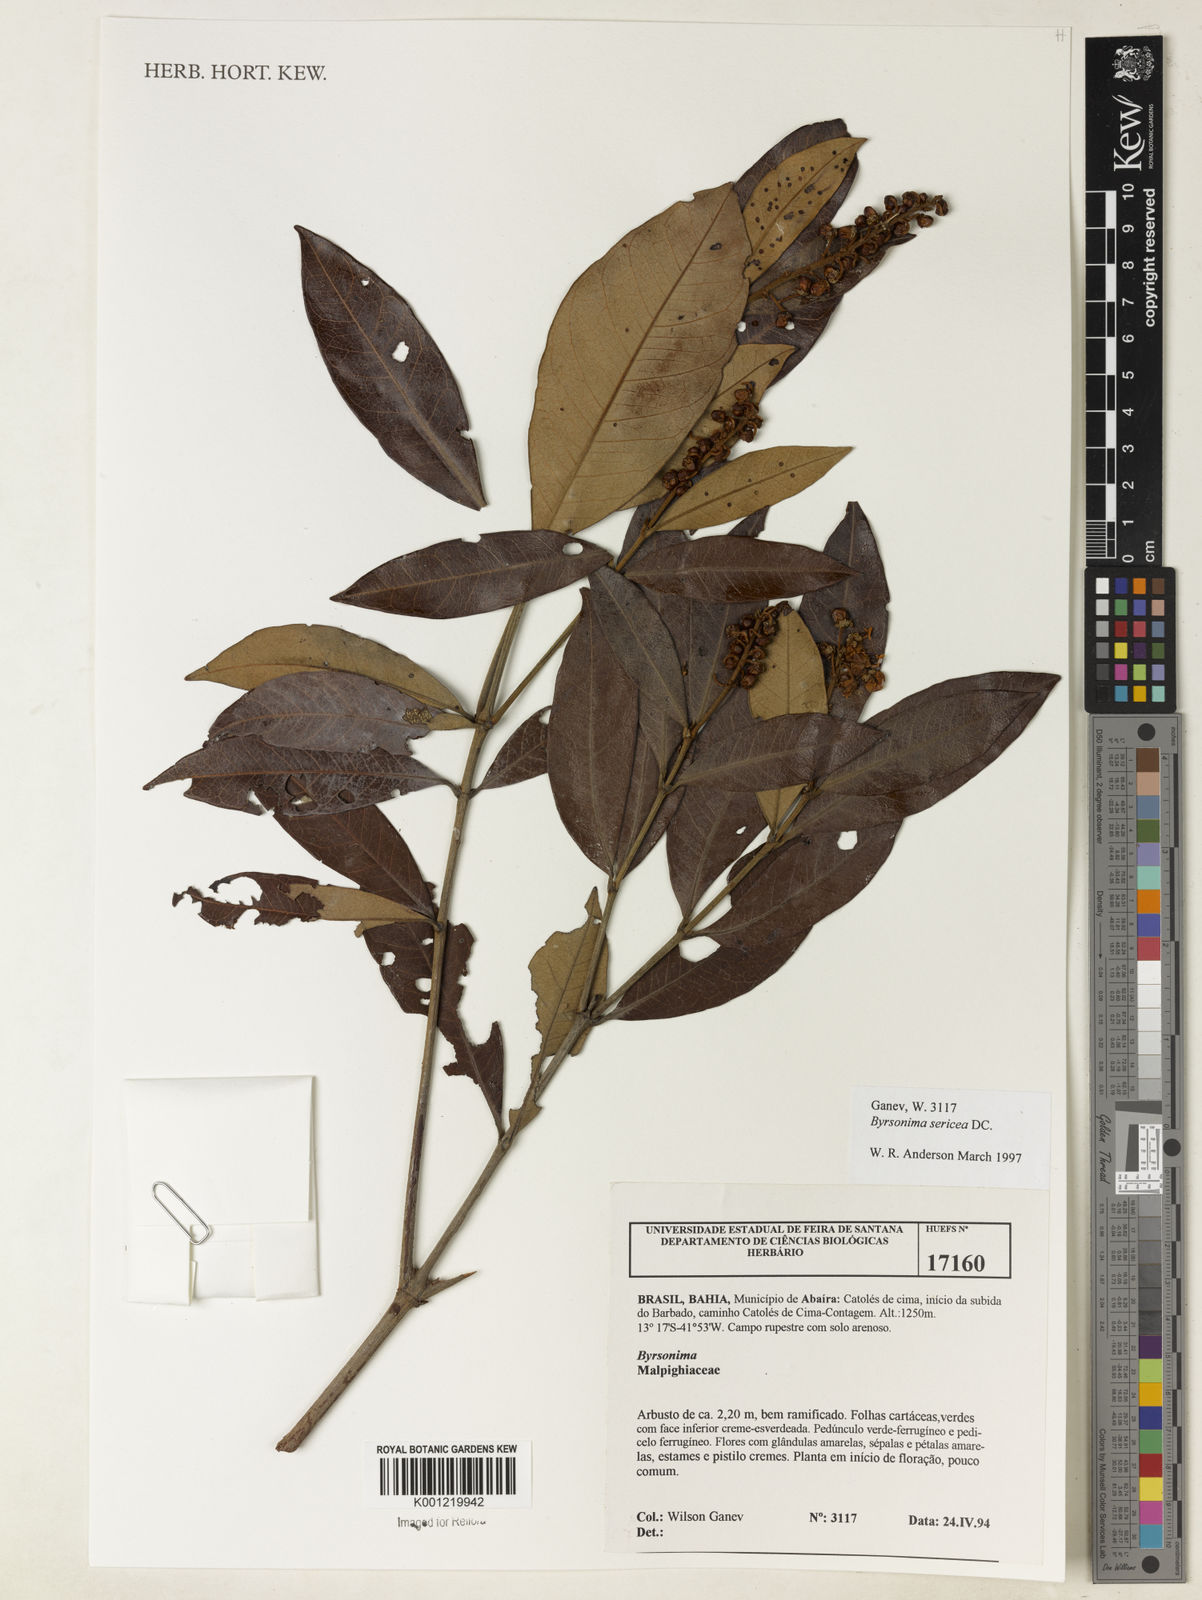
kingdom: Plantae
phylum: Tracheophyta
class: Magnoliopsida
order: Malpighiales
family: Malpighiaceae
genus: Byrsonima
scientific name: Byrsonima sericea
